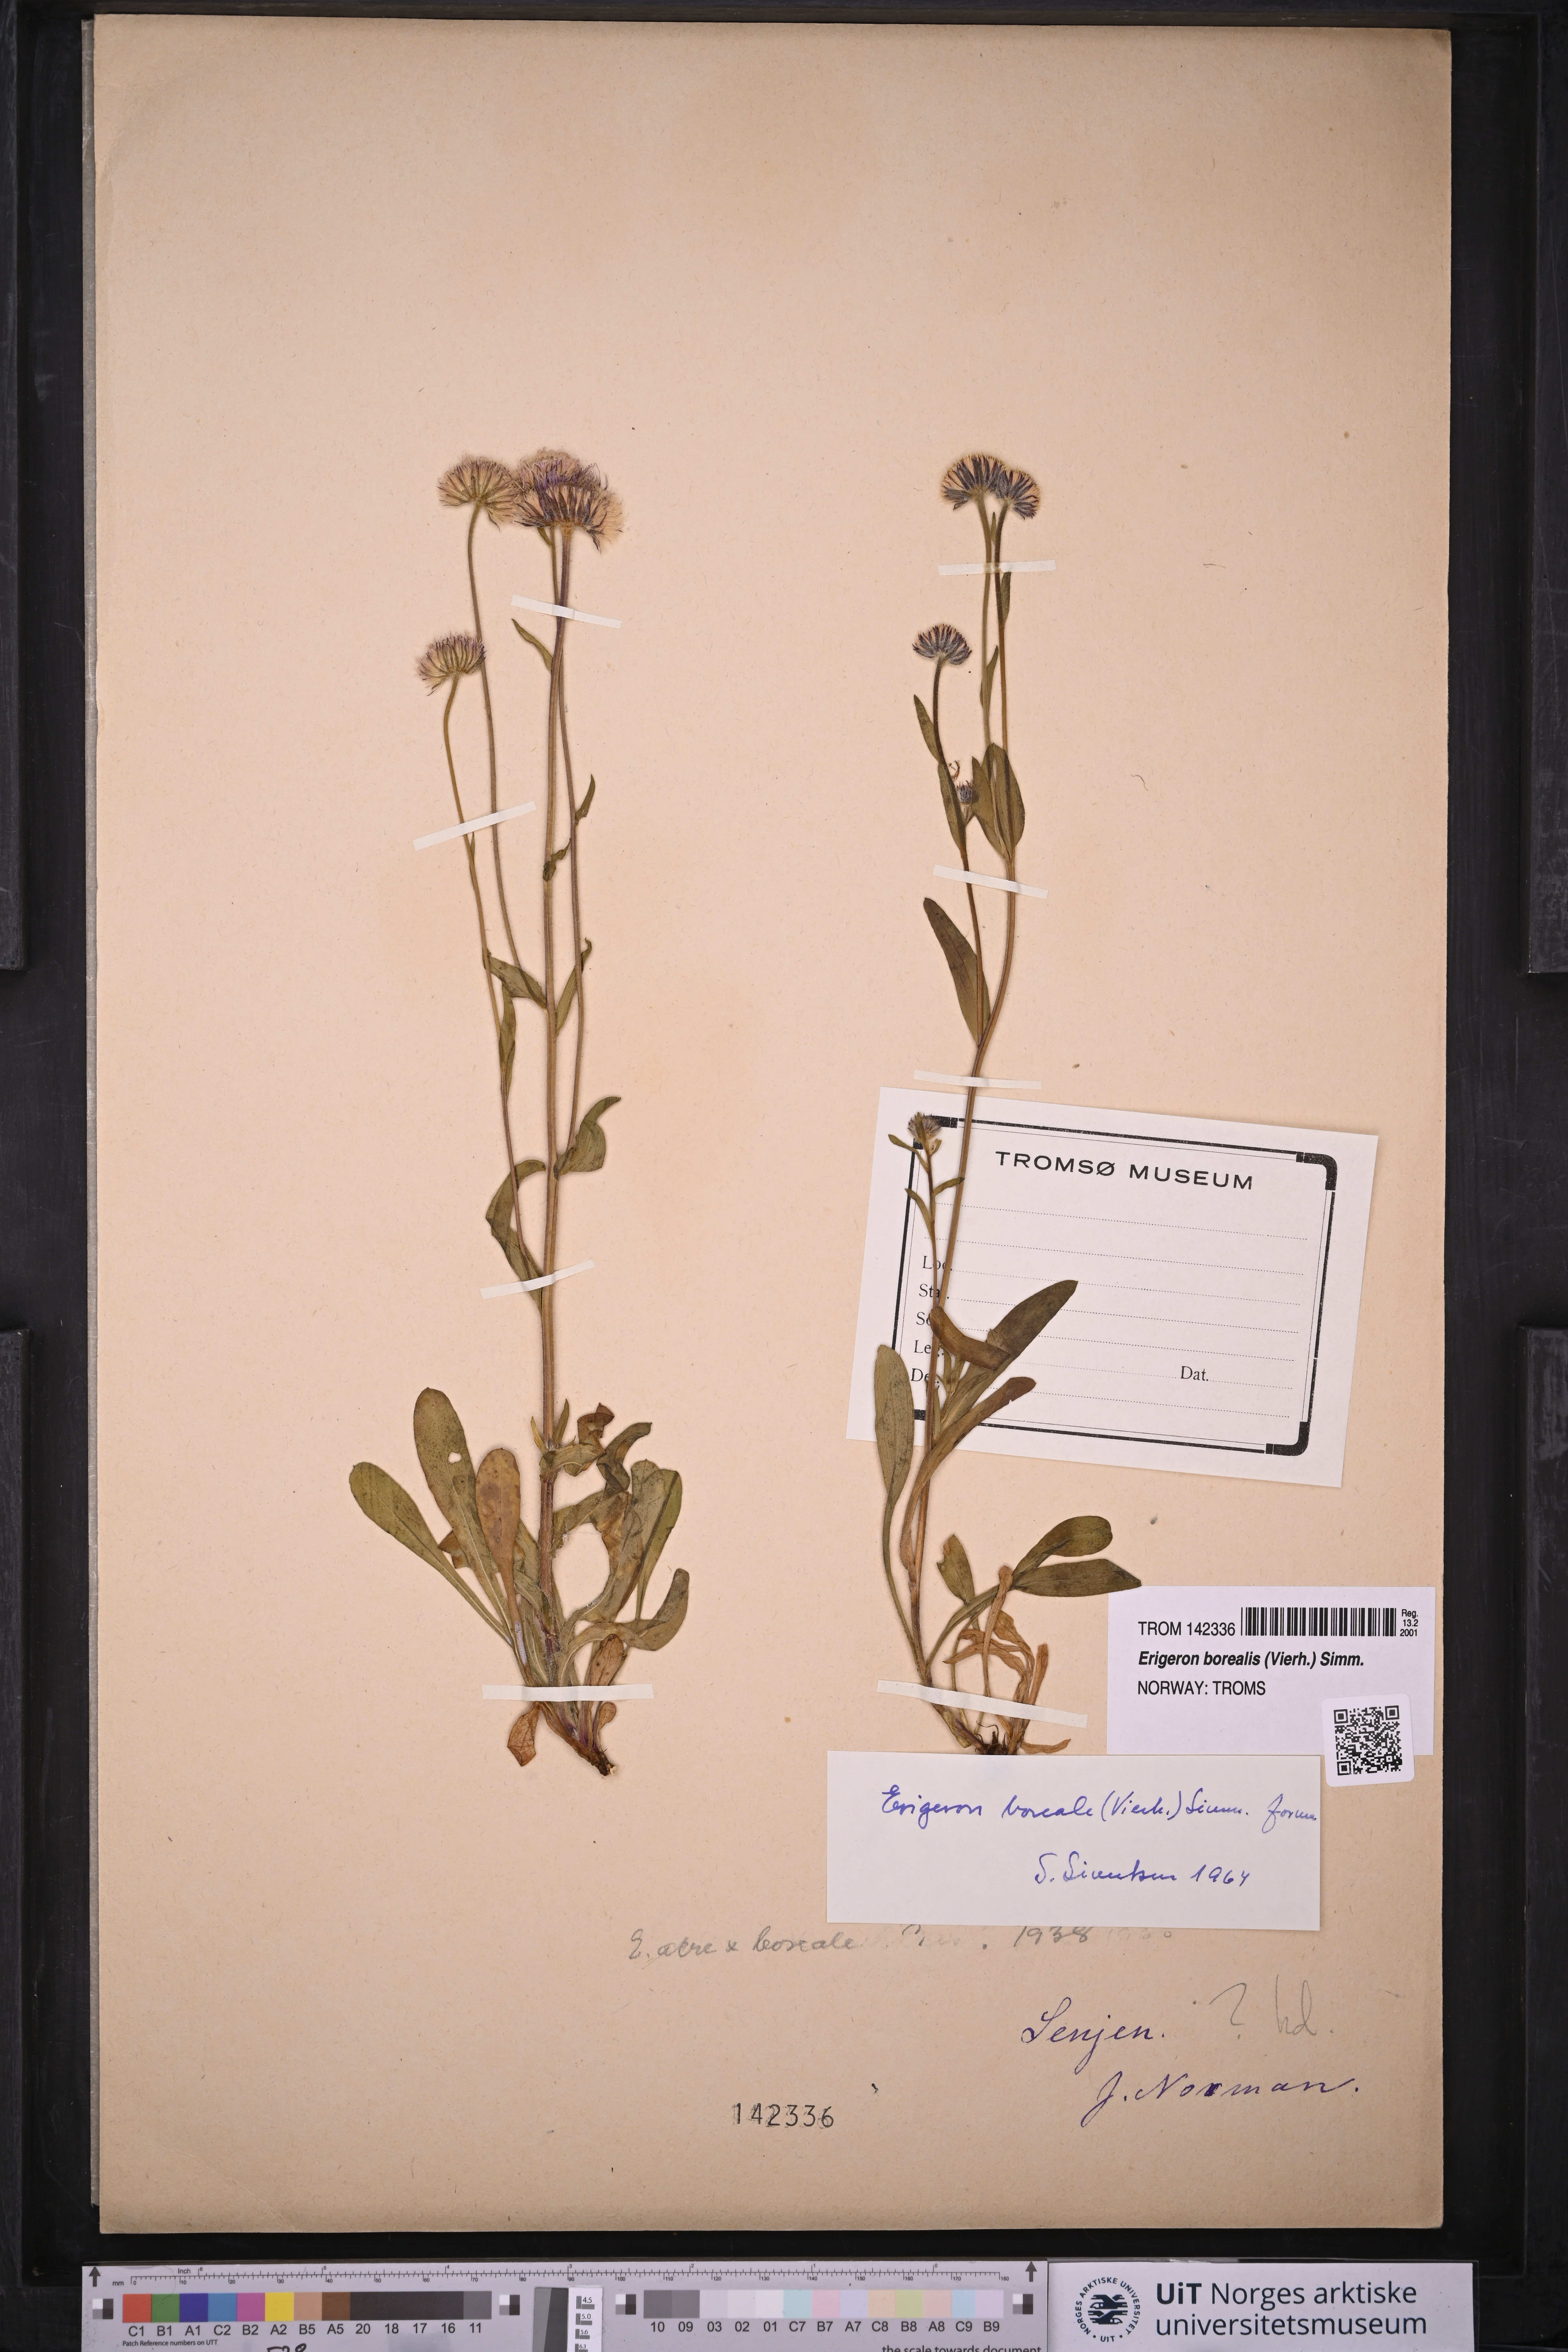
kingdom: Plantae
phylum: Tracheophyta
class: Magnoliopsida
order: Asterales
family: Asteraceae
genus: Erigeron
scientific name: Erigeron borealis
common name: Alpine fleabane
